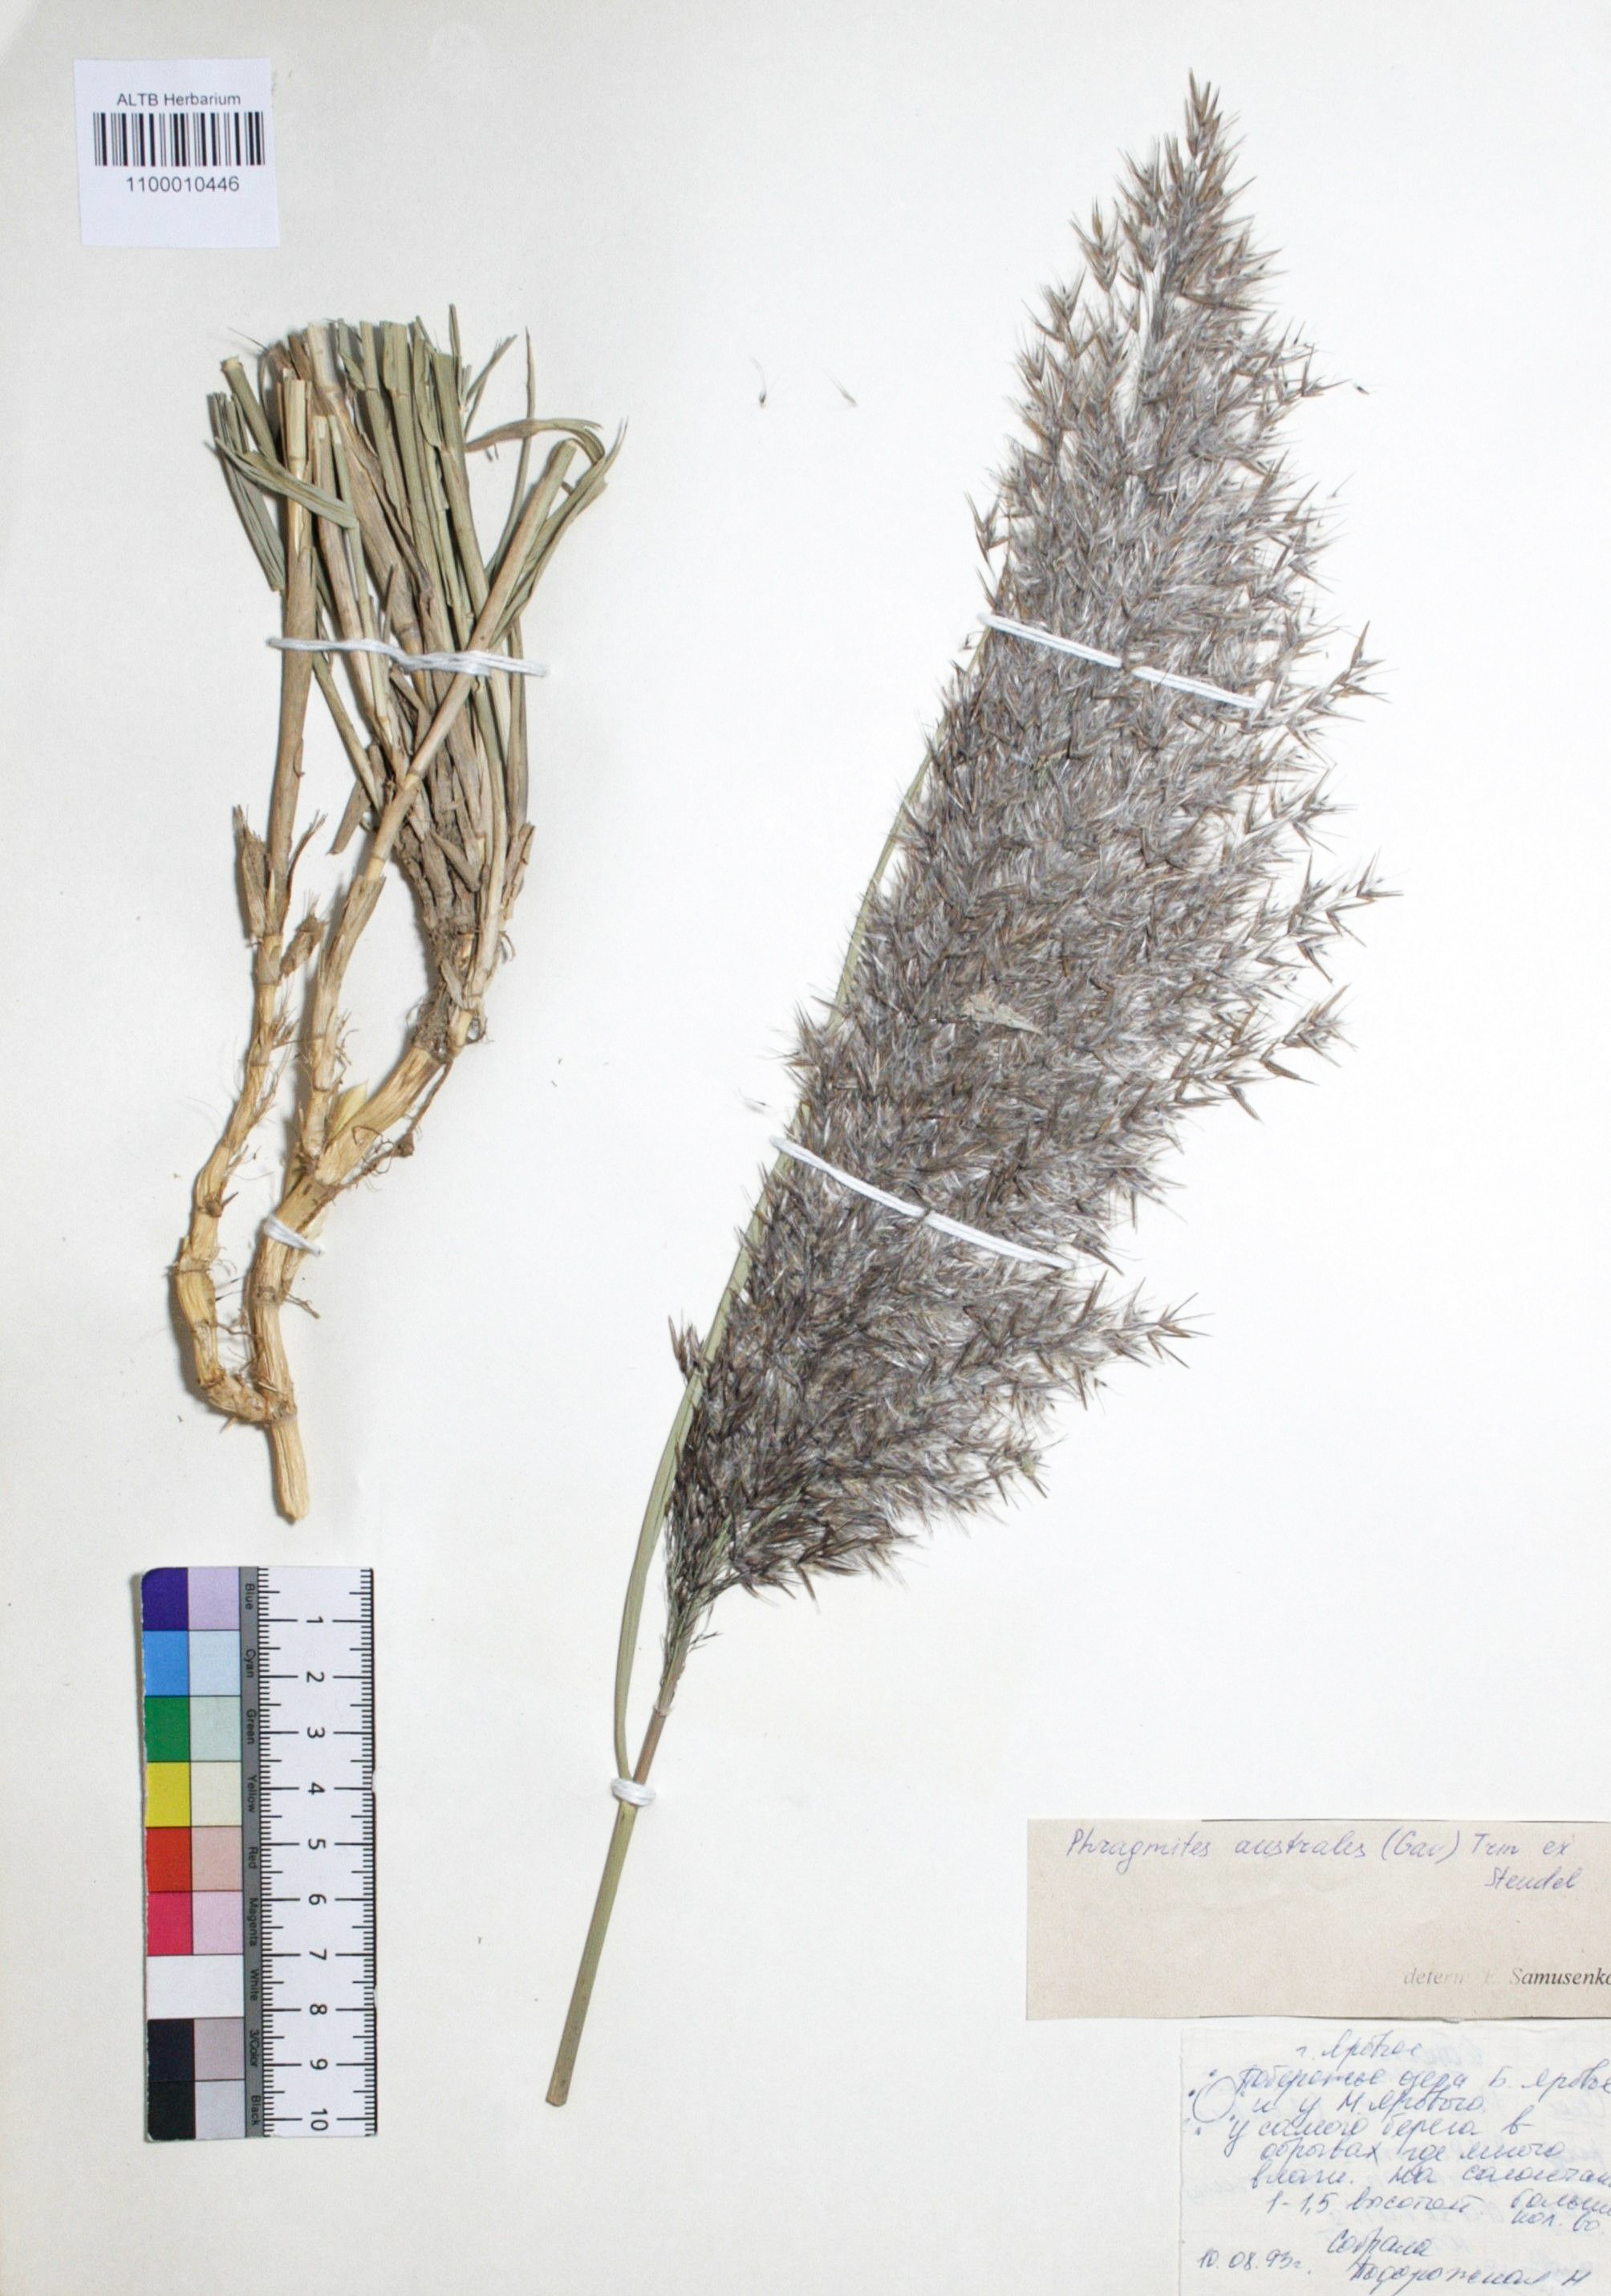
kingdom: Plantae
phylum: Tracheophyta
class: Liliopsida
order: Poales
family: Poaceae
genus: Phragmites
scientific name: Phragmites australis
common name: Common reed
